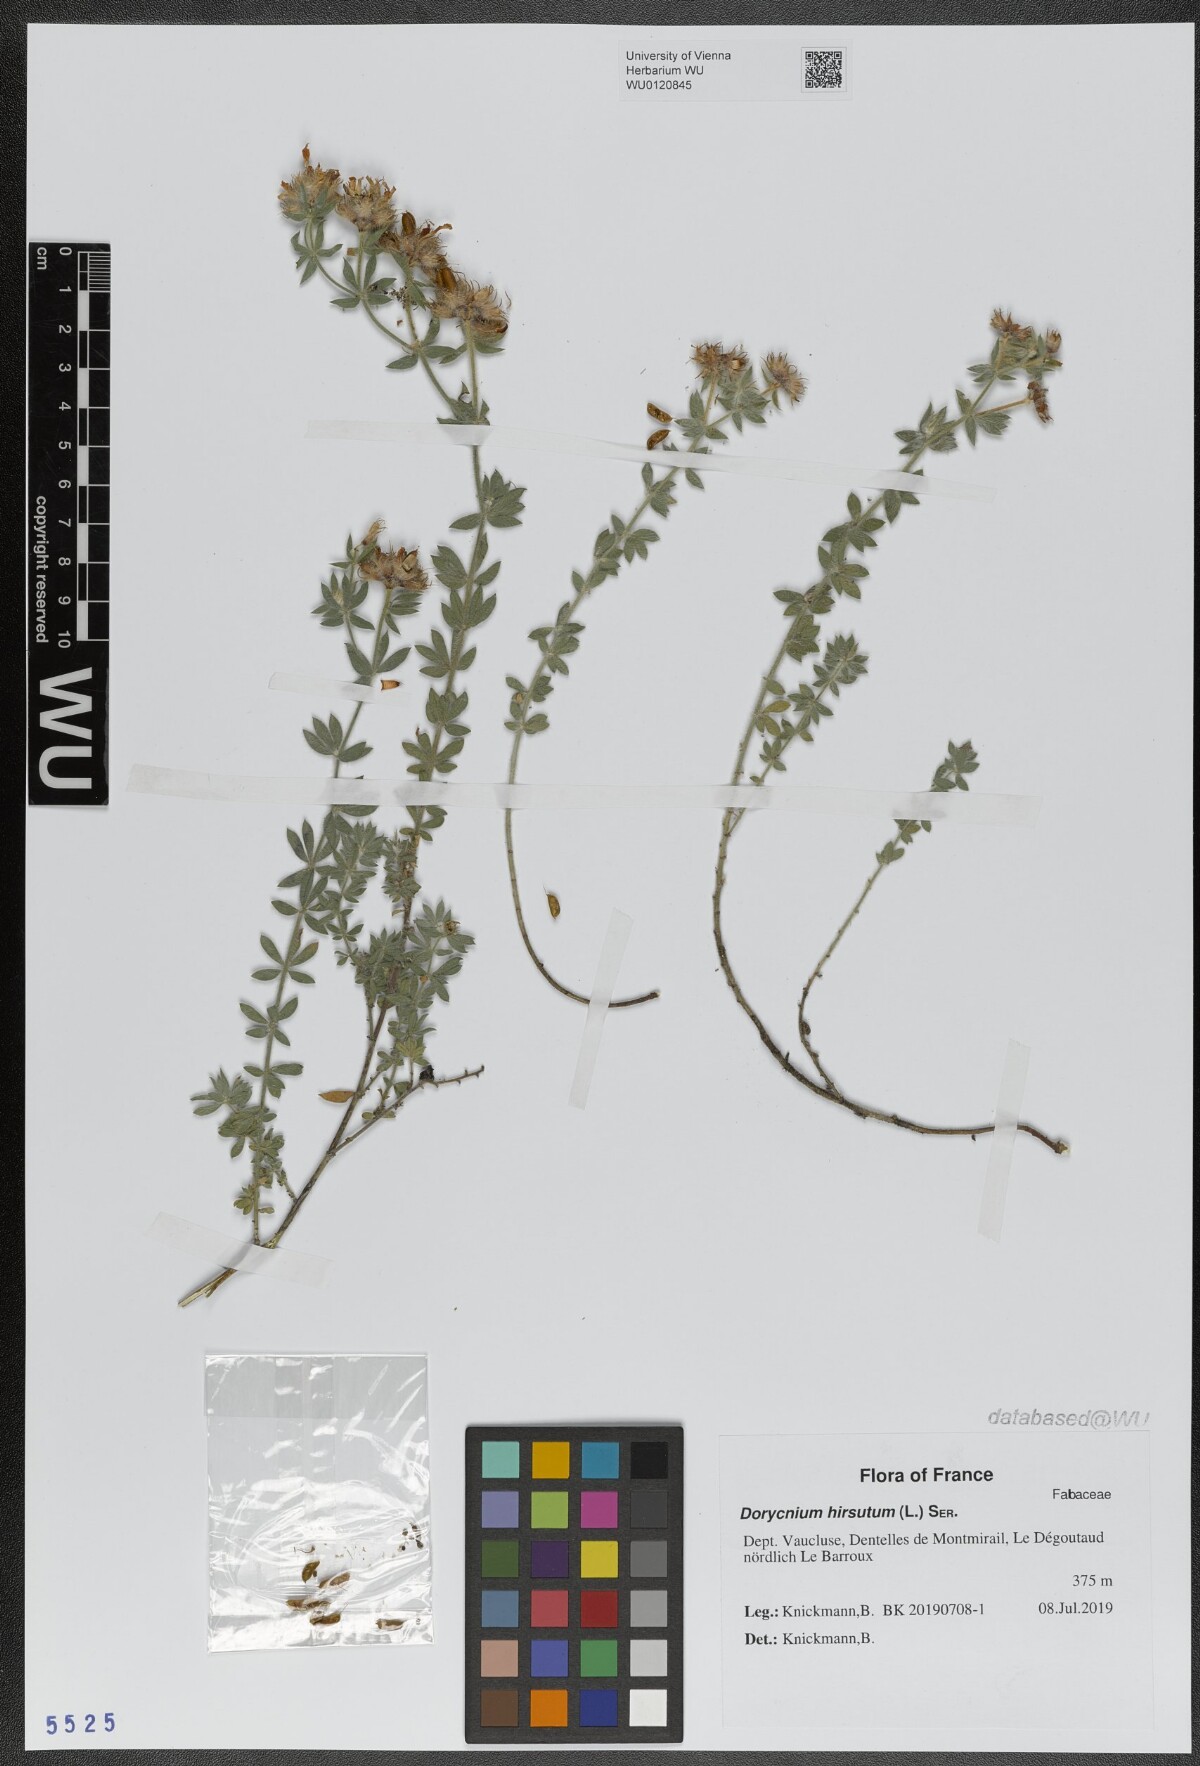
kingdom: Plantae
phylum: Tracheophyta
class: Magnoliopsida
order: Fabales
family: Fabaceae
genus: Lotus
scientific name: Lotus hirsutus
